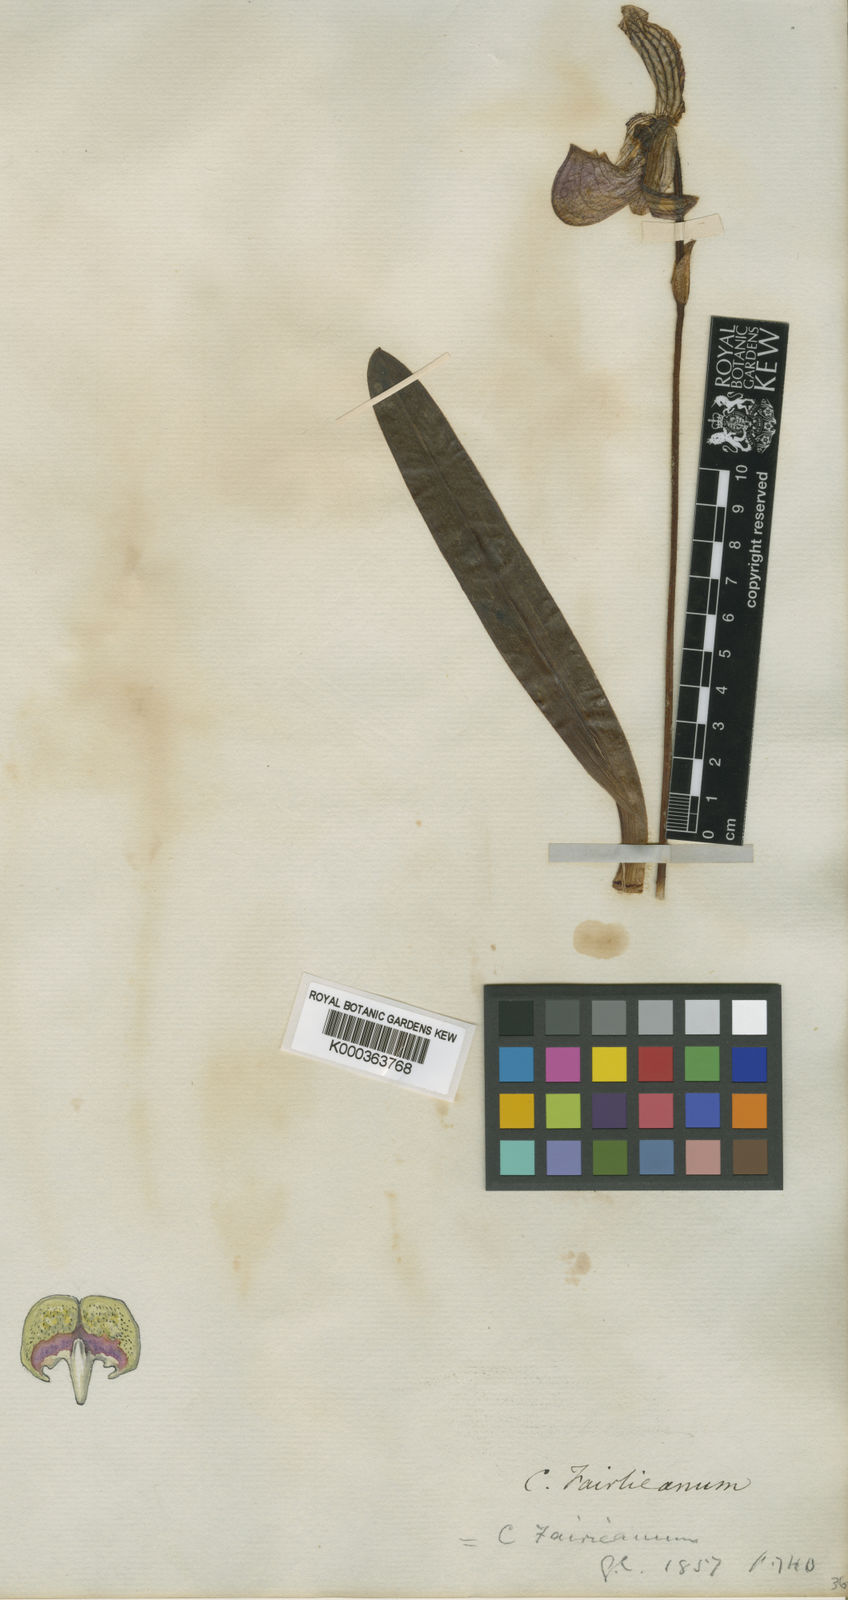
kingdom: Plantae
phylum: Tracheophyta
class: Liliopsida
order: Asparagales
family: Orchidaceae
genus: Paphiopedilum
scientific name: Paphiopedilum fairrieanum
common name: Fairrie's paphiopedilum
